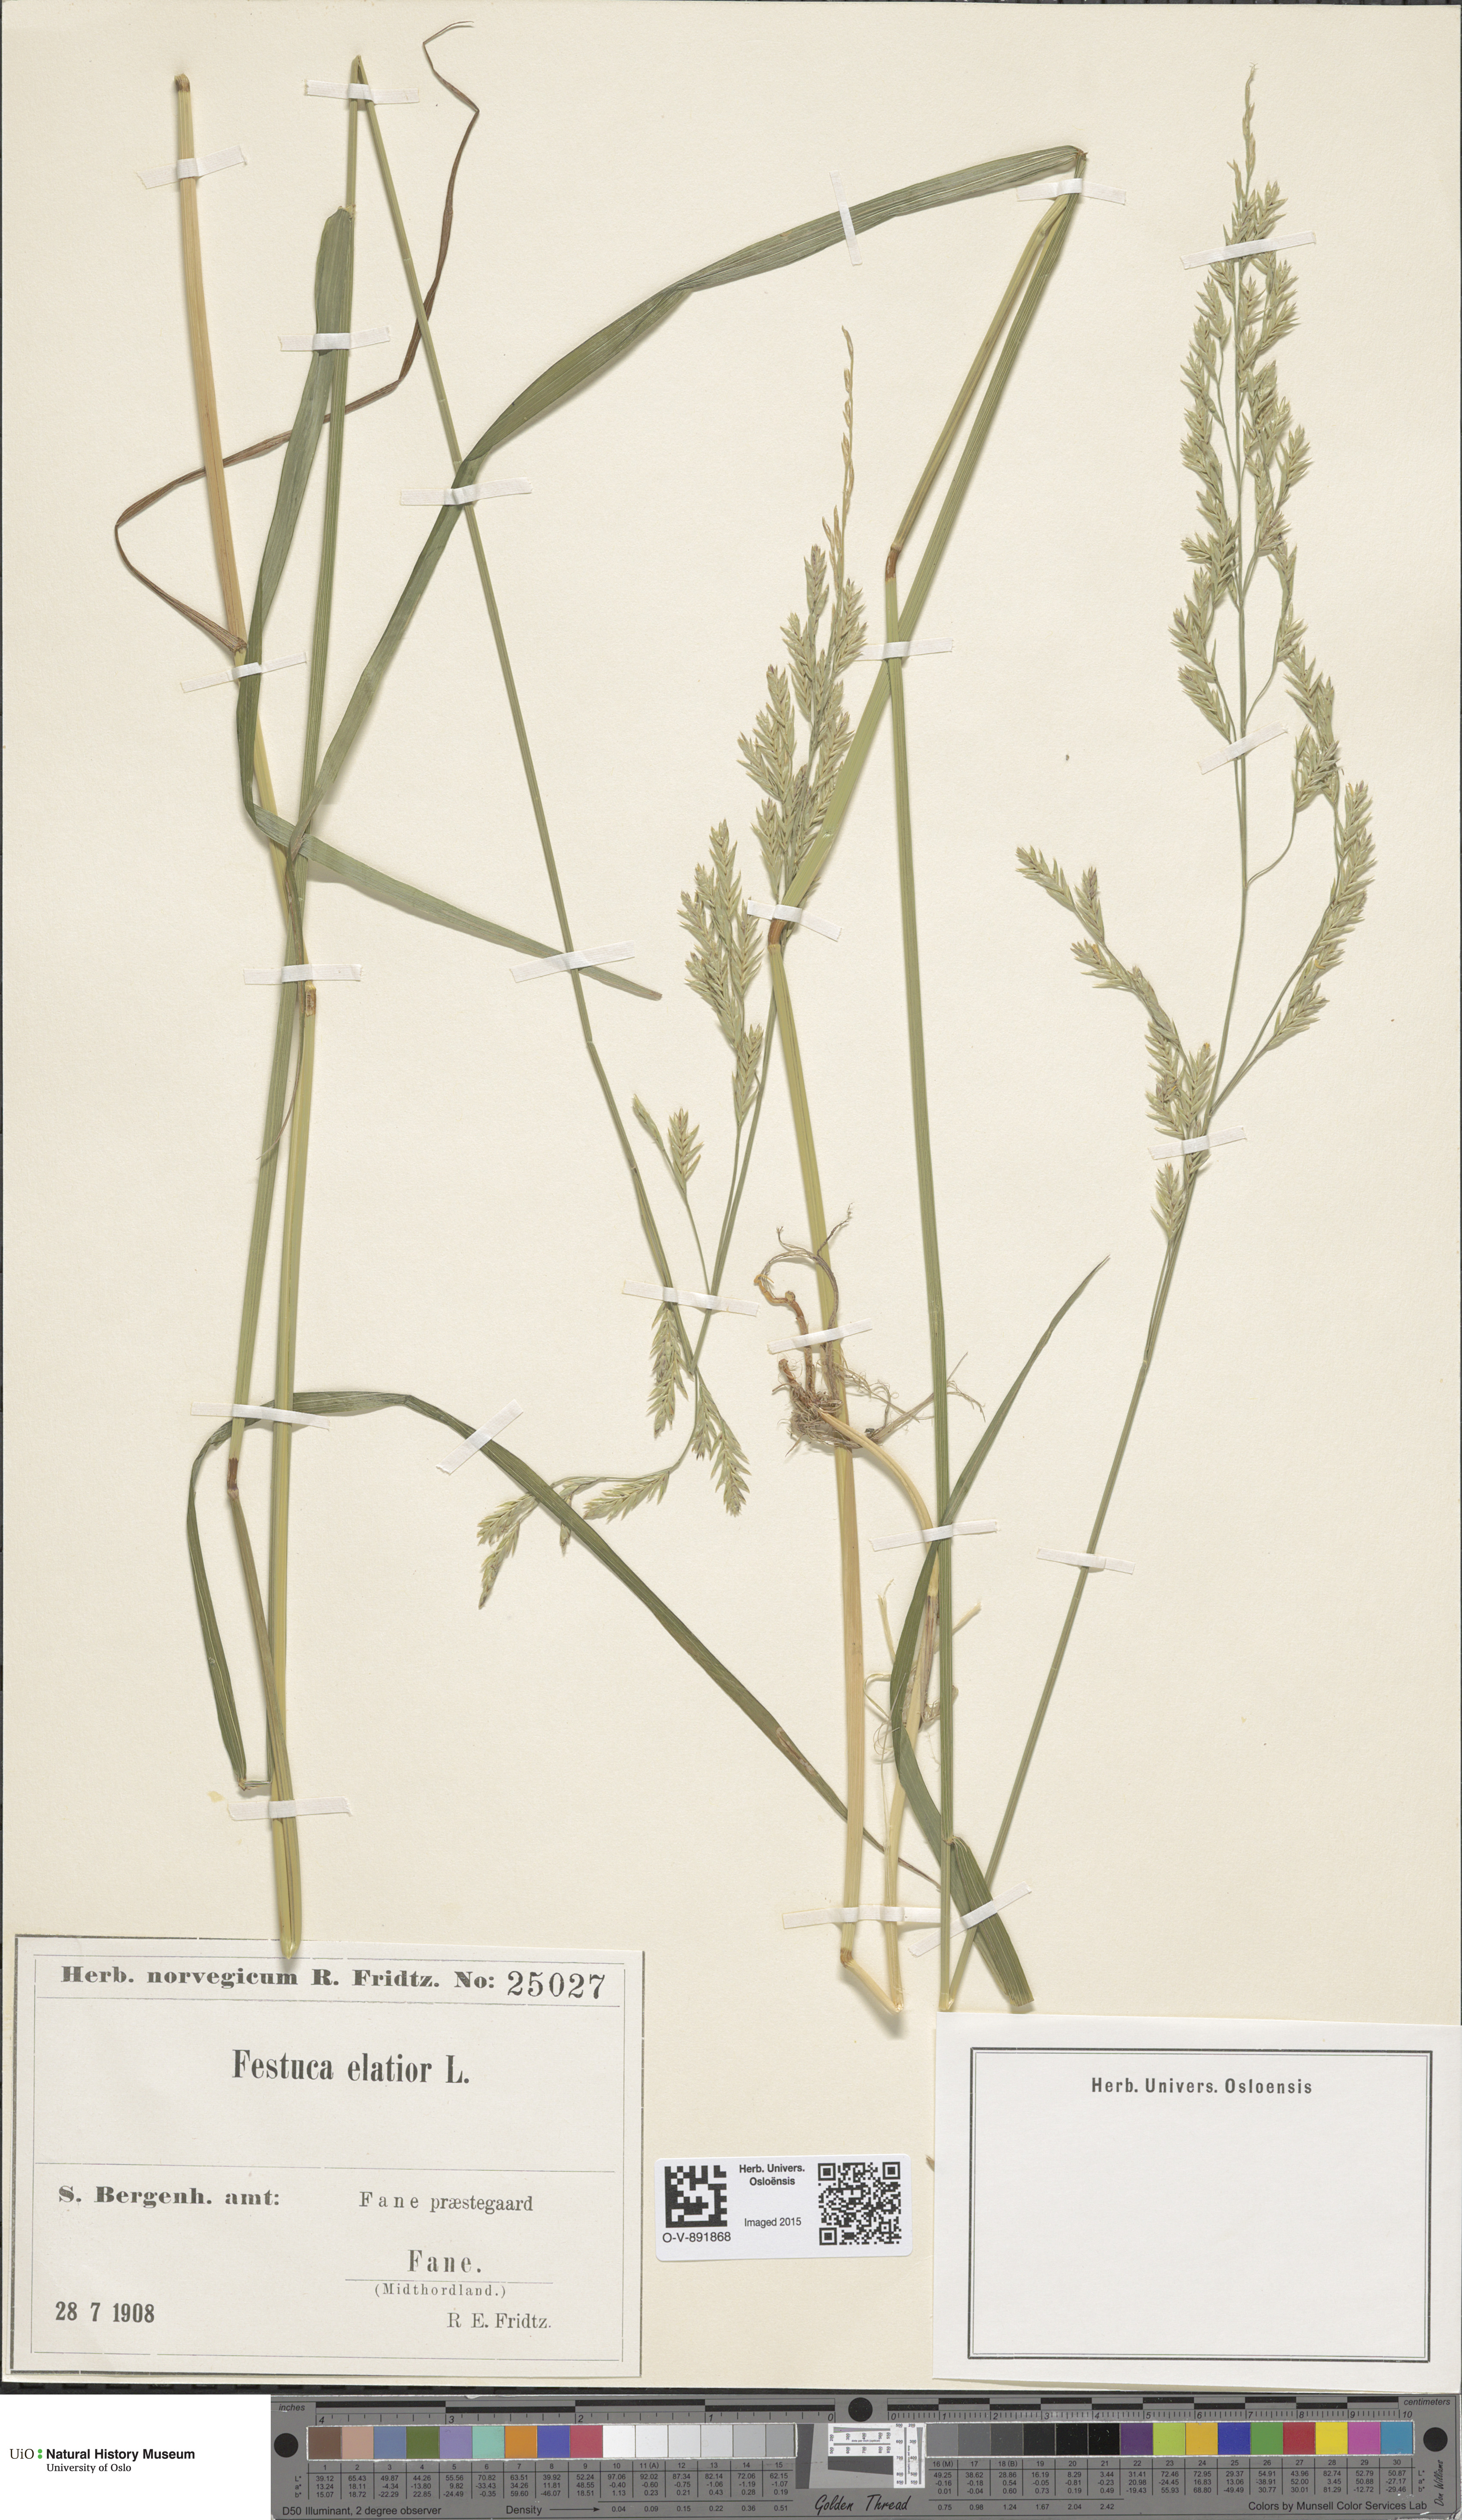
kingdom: Plantae
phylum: Tracheophyta
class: Liliopsida
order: Poales
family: Poaceae
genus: Lolium
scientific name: Lolium arundinaceum
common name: Reed fescue
